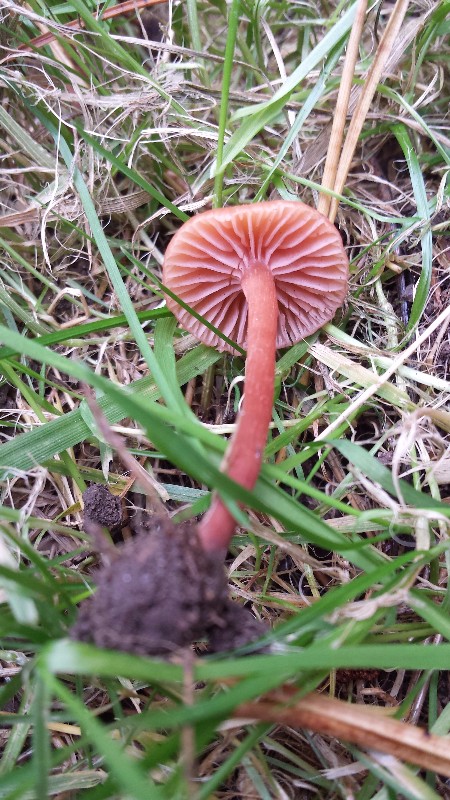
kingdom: Fungi
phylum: Basidiomycota
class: Agaricomycetes
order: Agaricales
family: Hydnangiaceae
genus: Laccaria
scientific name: Laccaria laccata
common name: rød ametysthat
